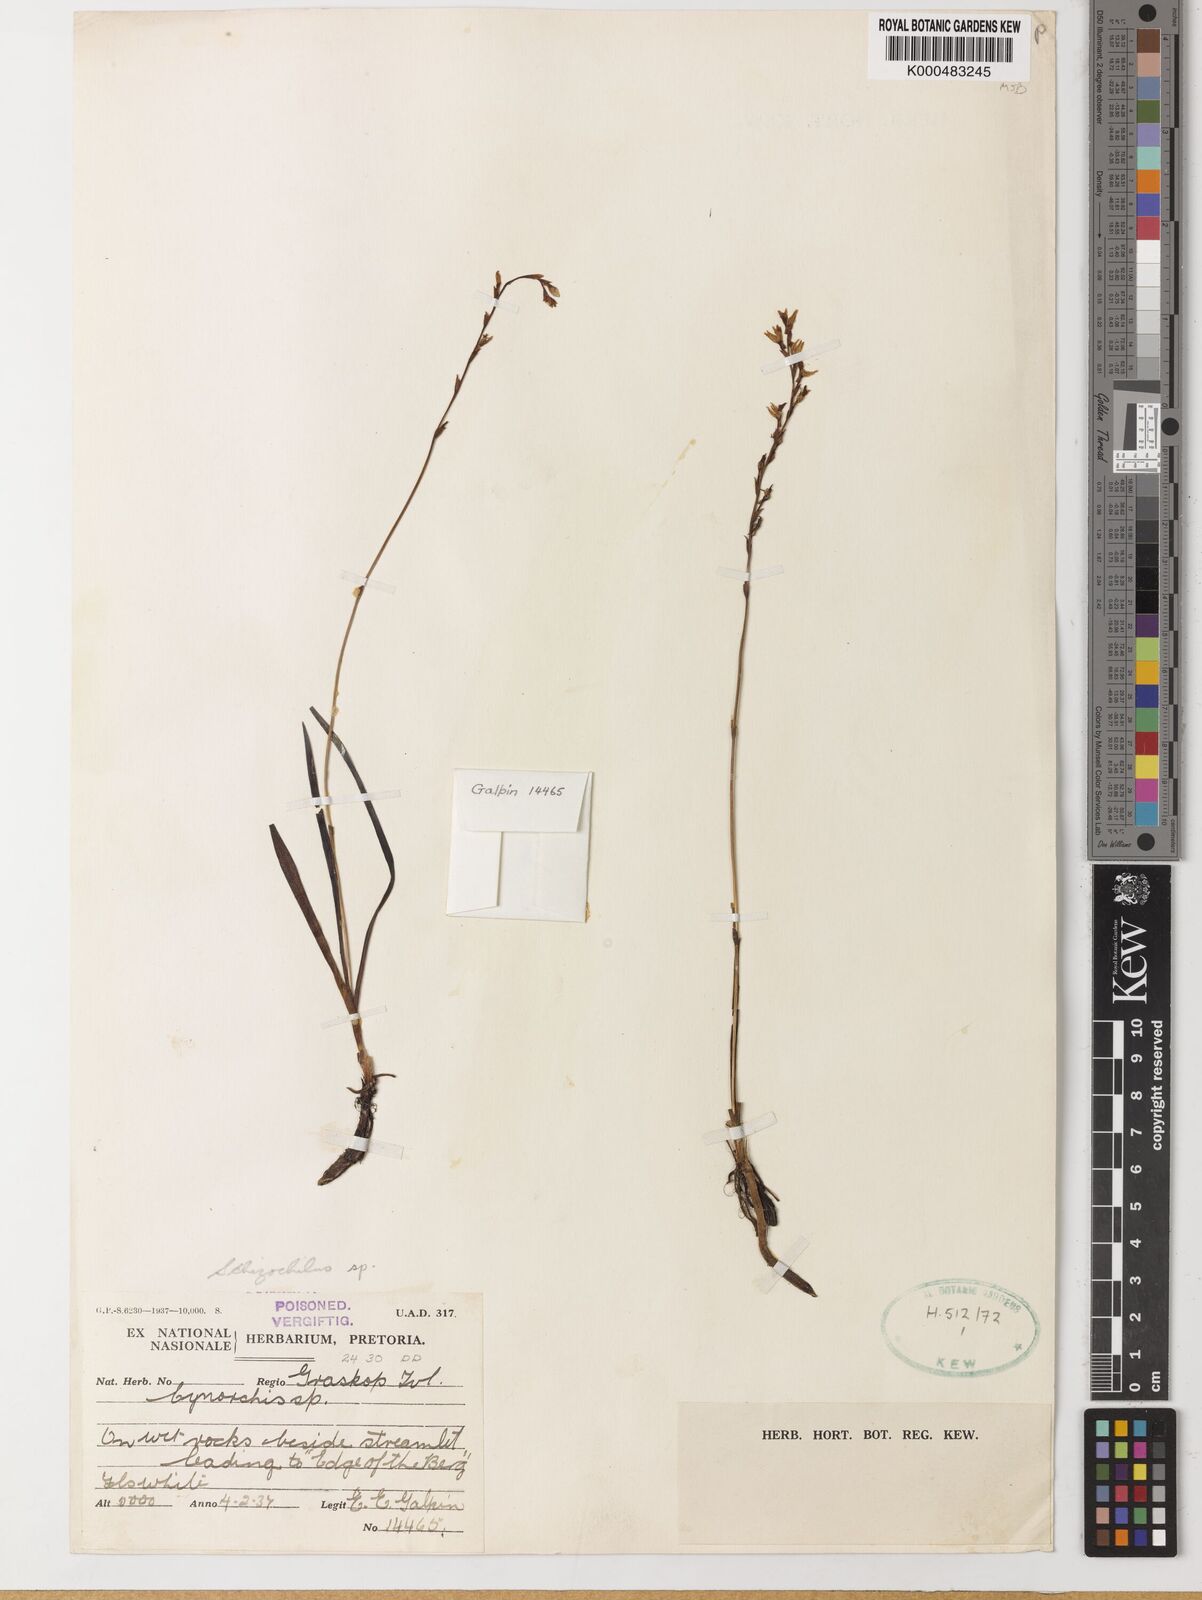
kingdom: Plantae
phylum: Tracheophyta
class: Liliopsida
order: Asparagales
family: Orchidaceae
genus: Schizochilus
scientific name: Schizochilus crenulatus
